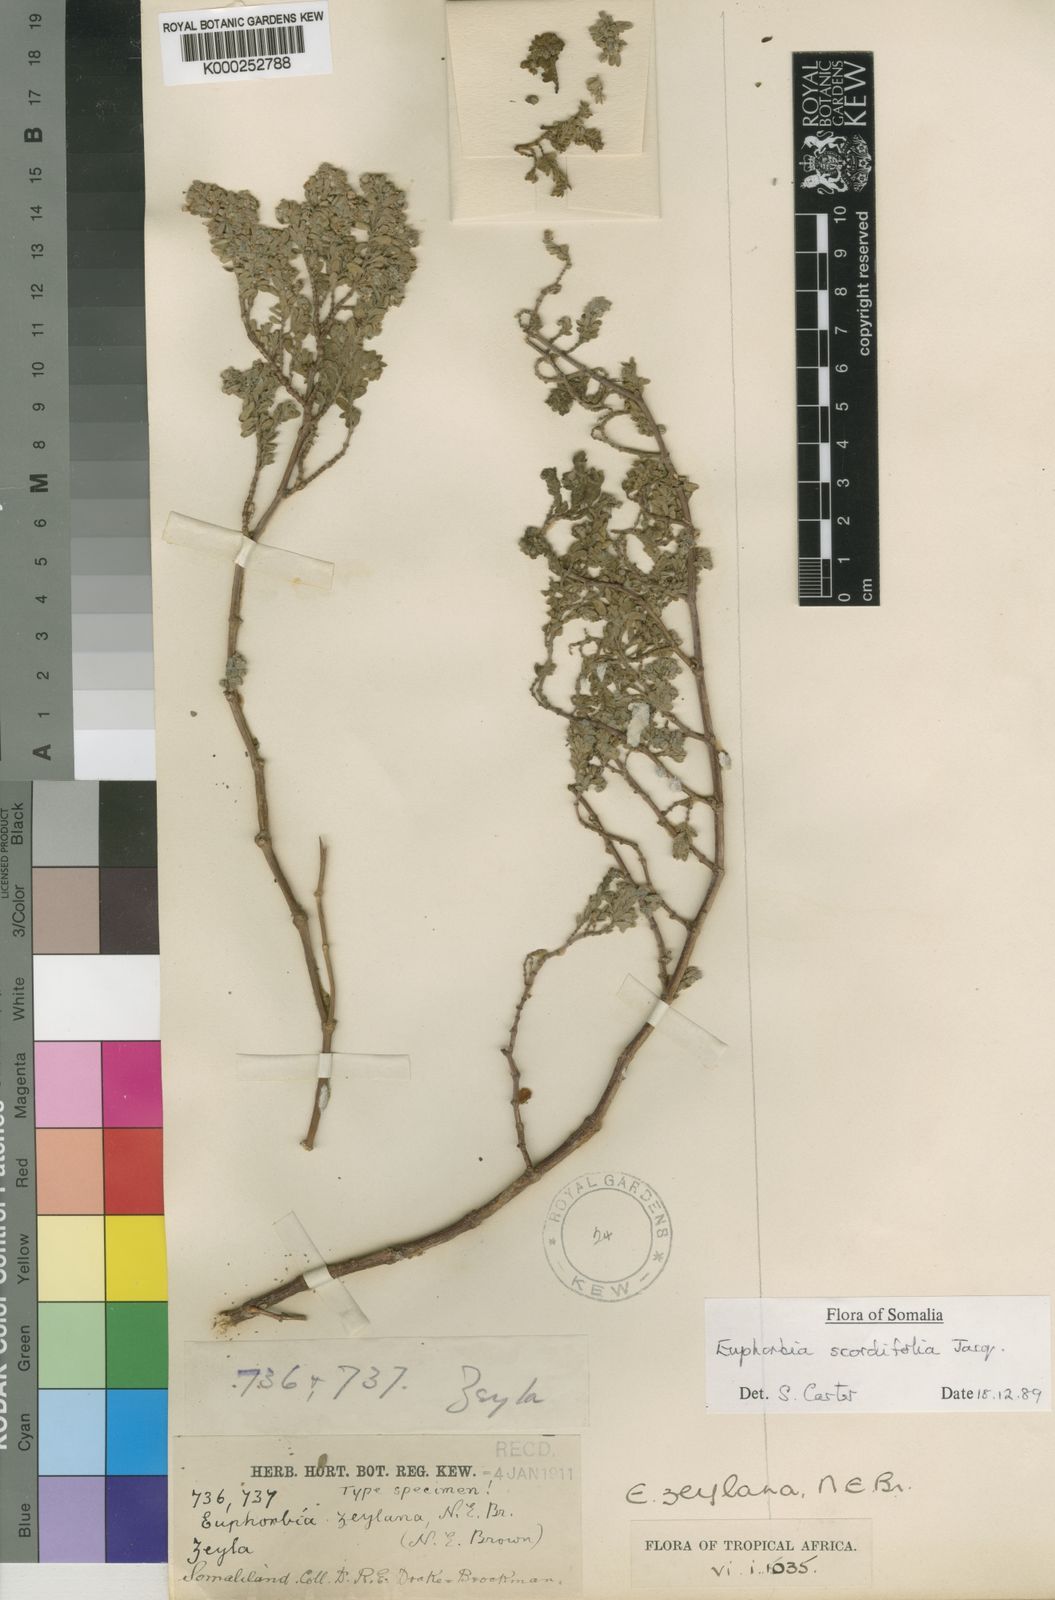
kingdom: Plantae
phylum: Tracheophyta
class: Magnoliopsida
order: Malpighiales
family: Euphorbiaceae
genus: Euphorbia
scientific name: Euphorbia zeylana
